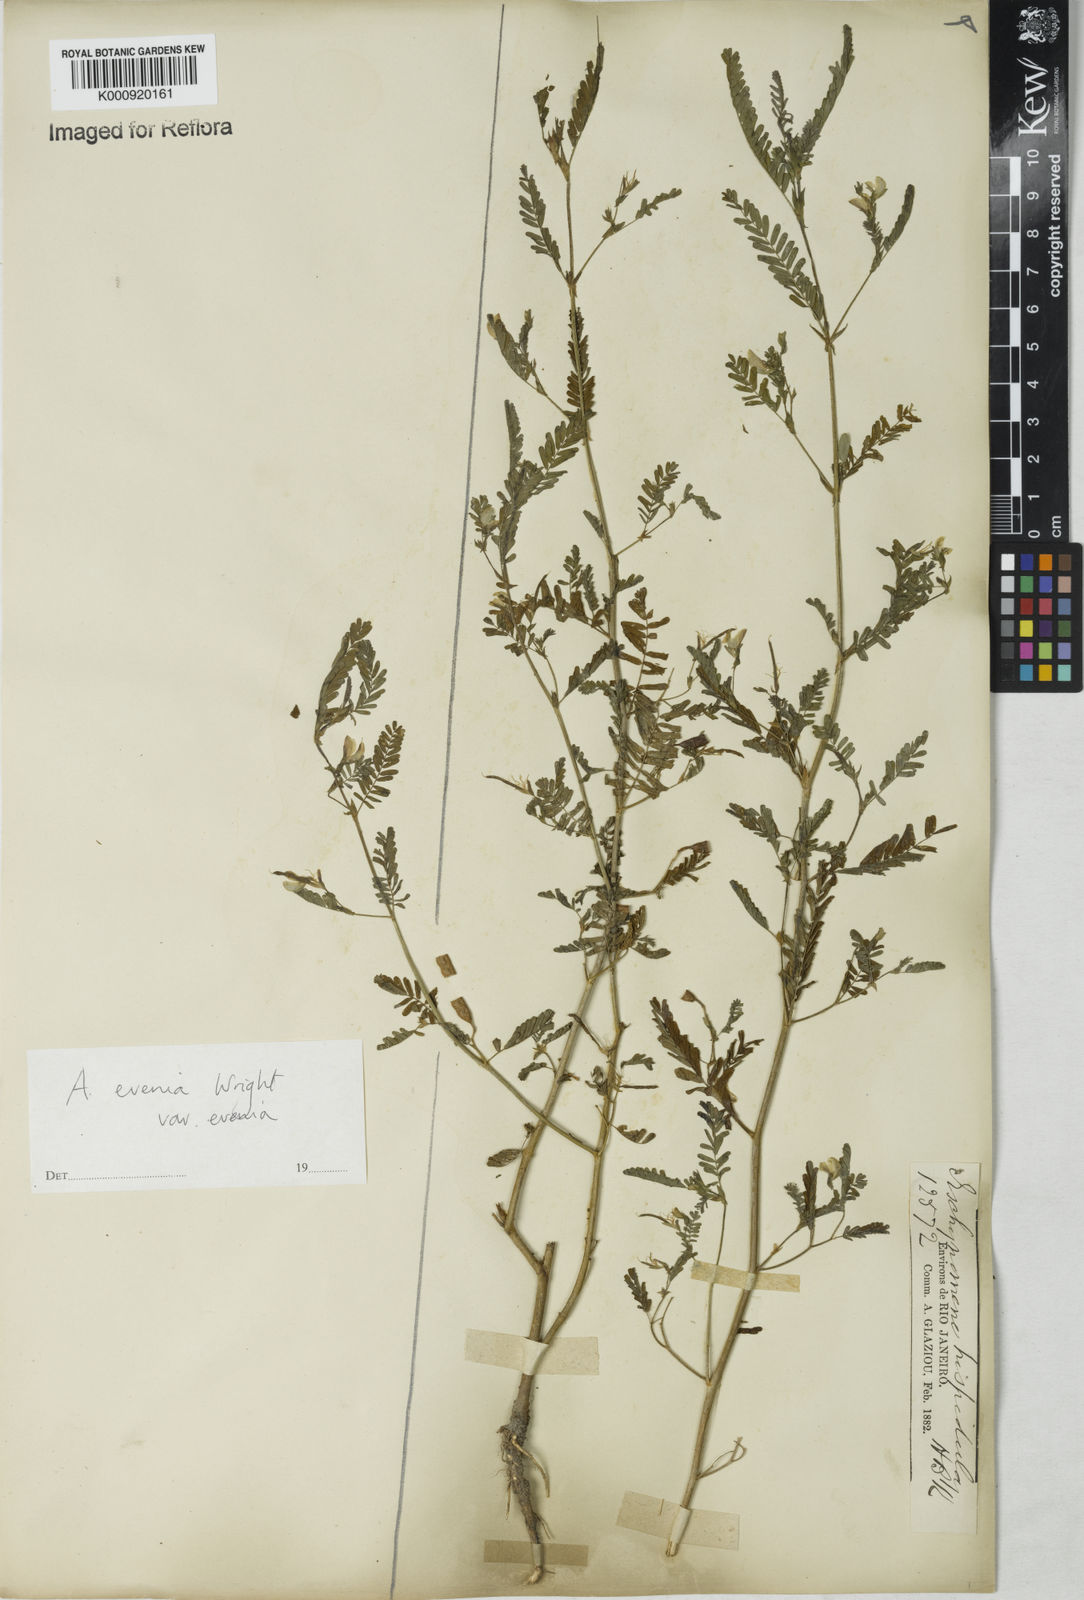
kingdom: Plantae
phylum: Tracheophyta
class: Magnoliopsida
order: Fabales
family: Fabaceae
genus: Aeschynomene
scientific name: Aeschynomene evenia
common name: Shrubby jointvetch
